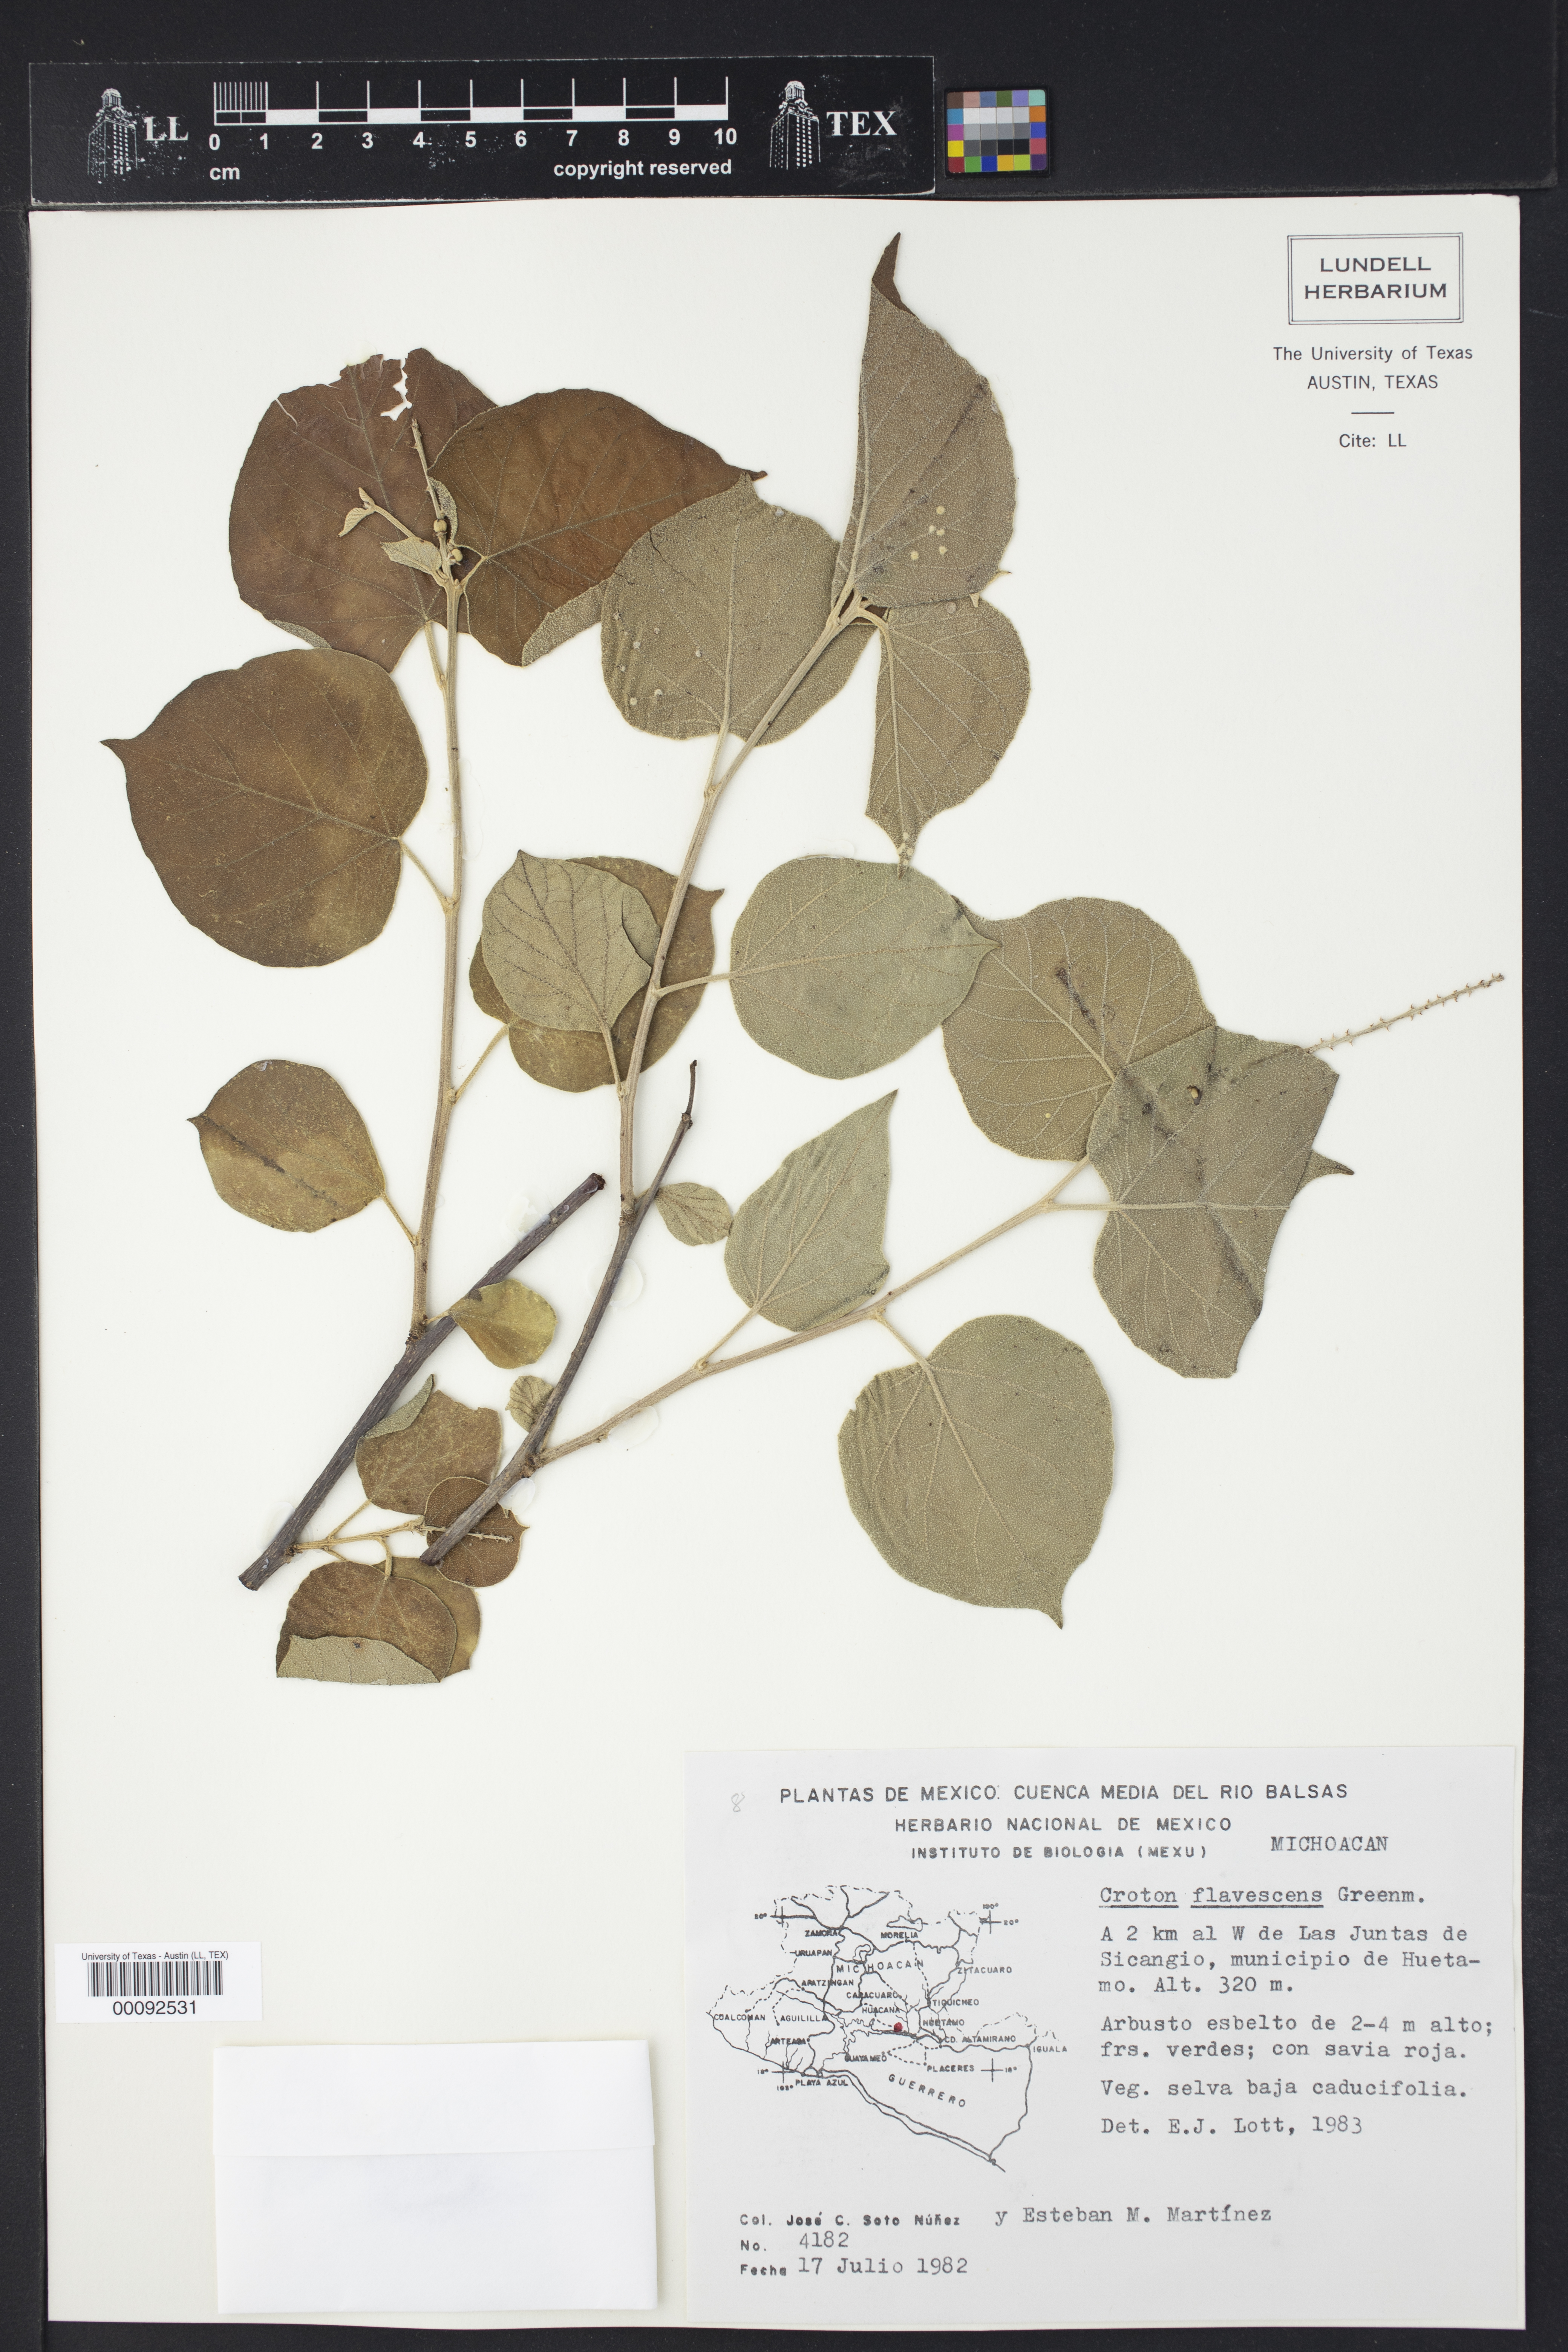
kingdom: Plantae
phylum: Tracheophyta
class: Magnoliopsida
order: Malpighiales
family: Euphorbiaceae
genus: Croton
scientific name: Croton morifolius
